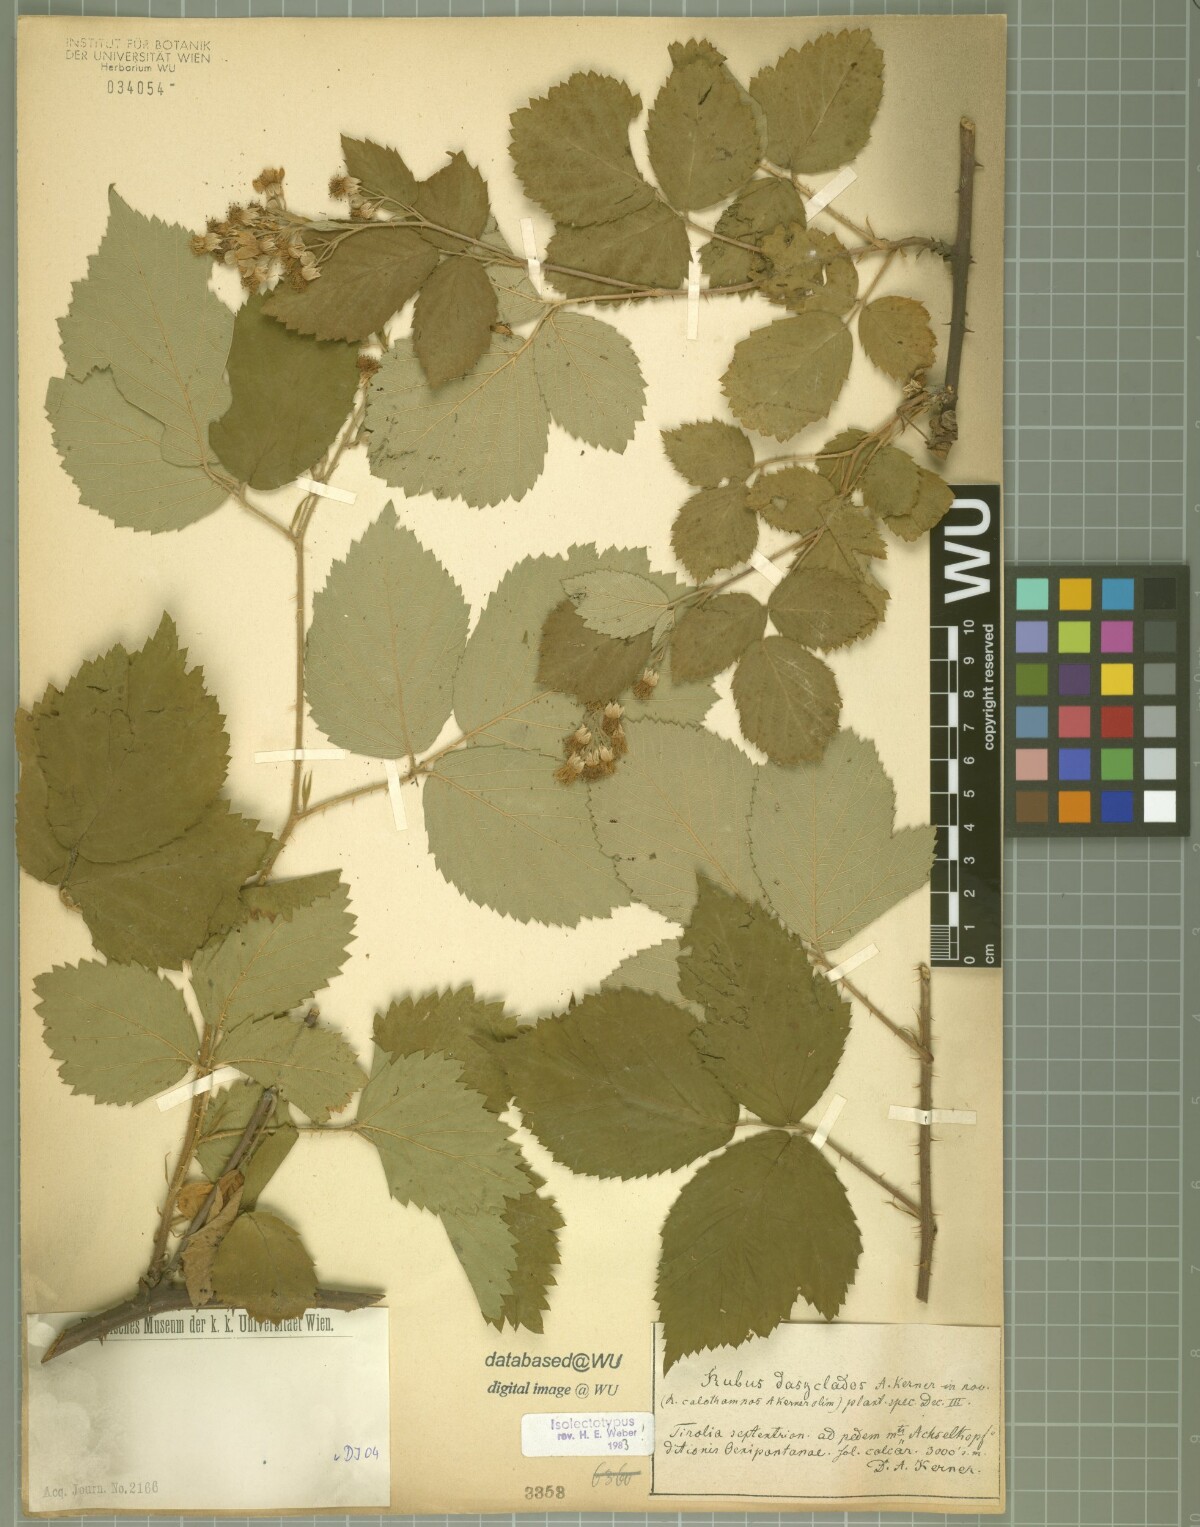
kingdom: Plantae
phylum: Tracheophyta
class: Magnoliopsida
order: Rosales
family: Rosaceae
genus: Rubus
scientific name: Rubus adscitus
